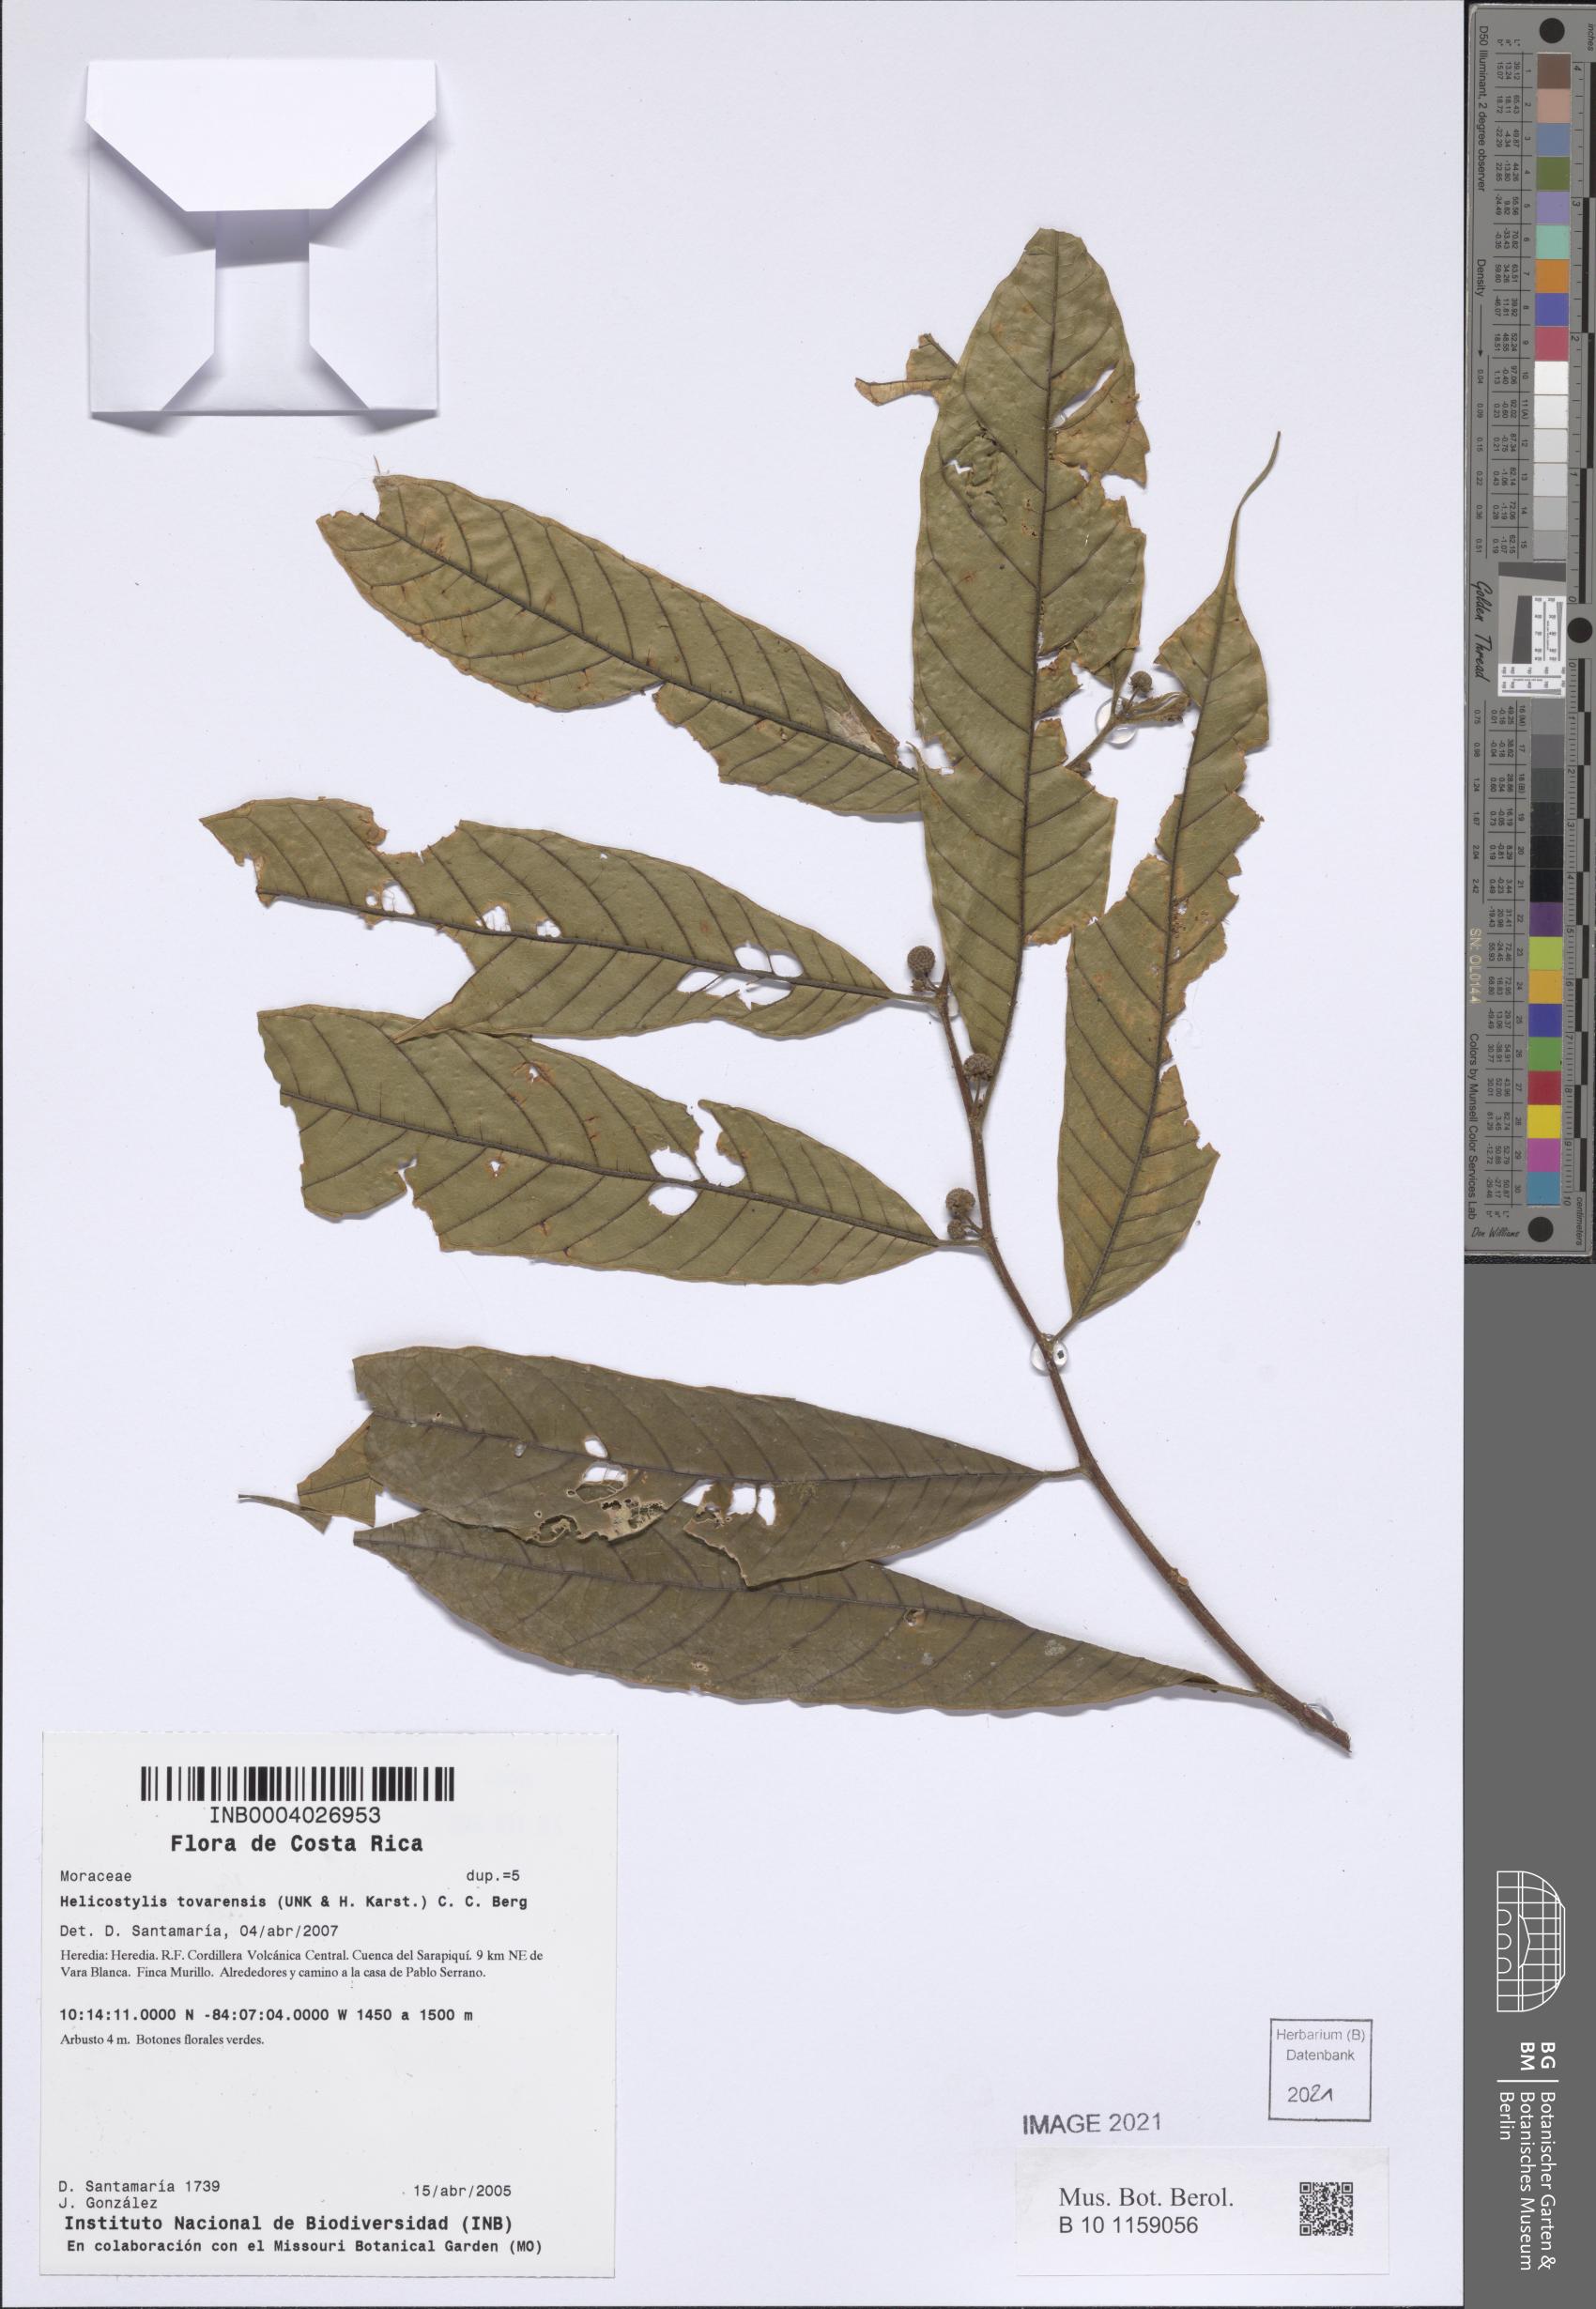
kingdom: Plantae
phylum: Tracheophyta
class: Magnoliopsida
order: Rosales
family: Moraceae
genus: Helicostylis
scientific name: Helicostylis tovarensis
